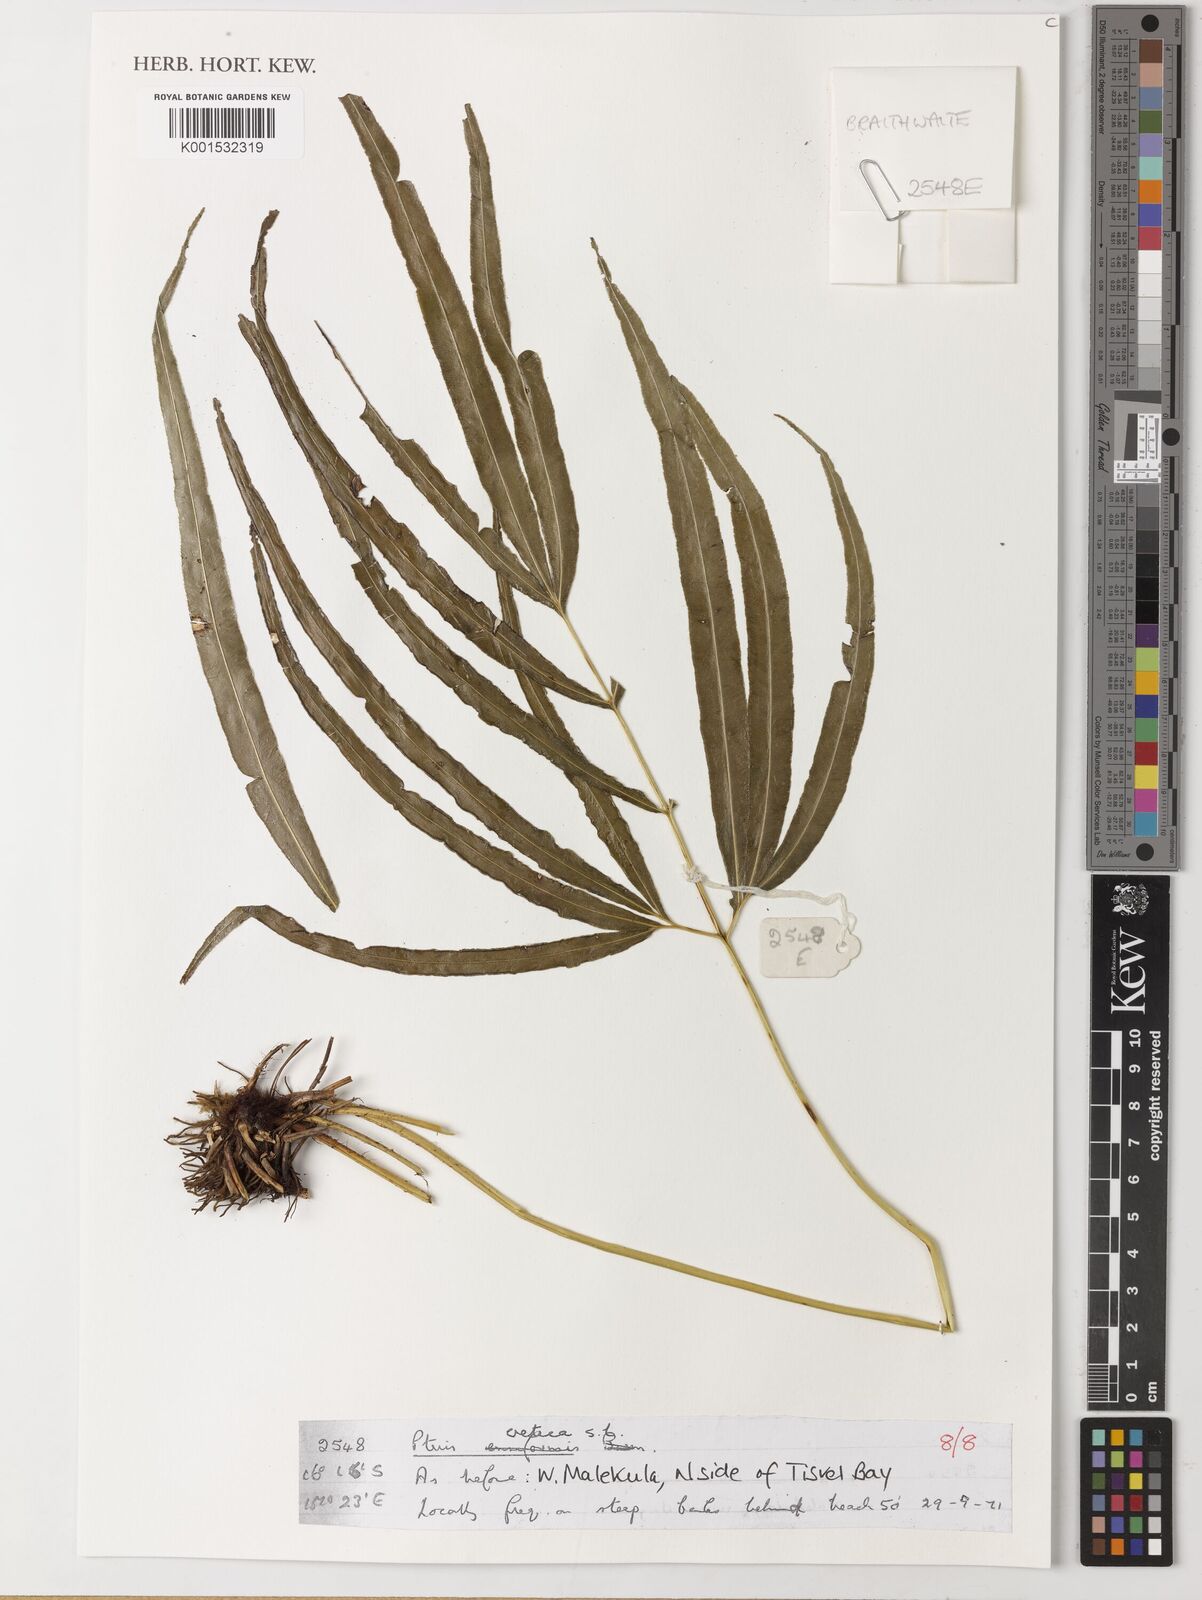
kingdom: Plantae
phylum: Tracheophyta
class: Polypodiopsida
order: Polypodiales
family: Pteridaceae
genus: Pteris
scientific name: Pteris cretica
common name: Ribbon fern
